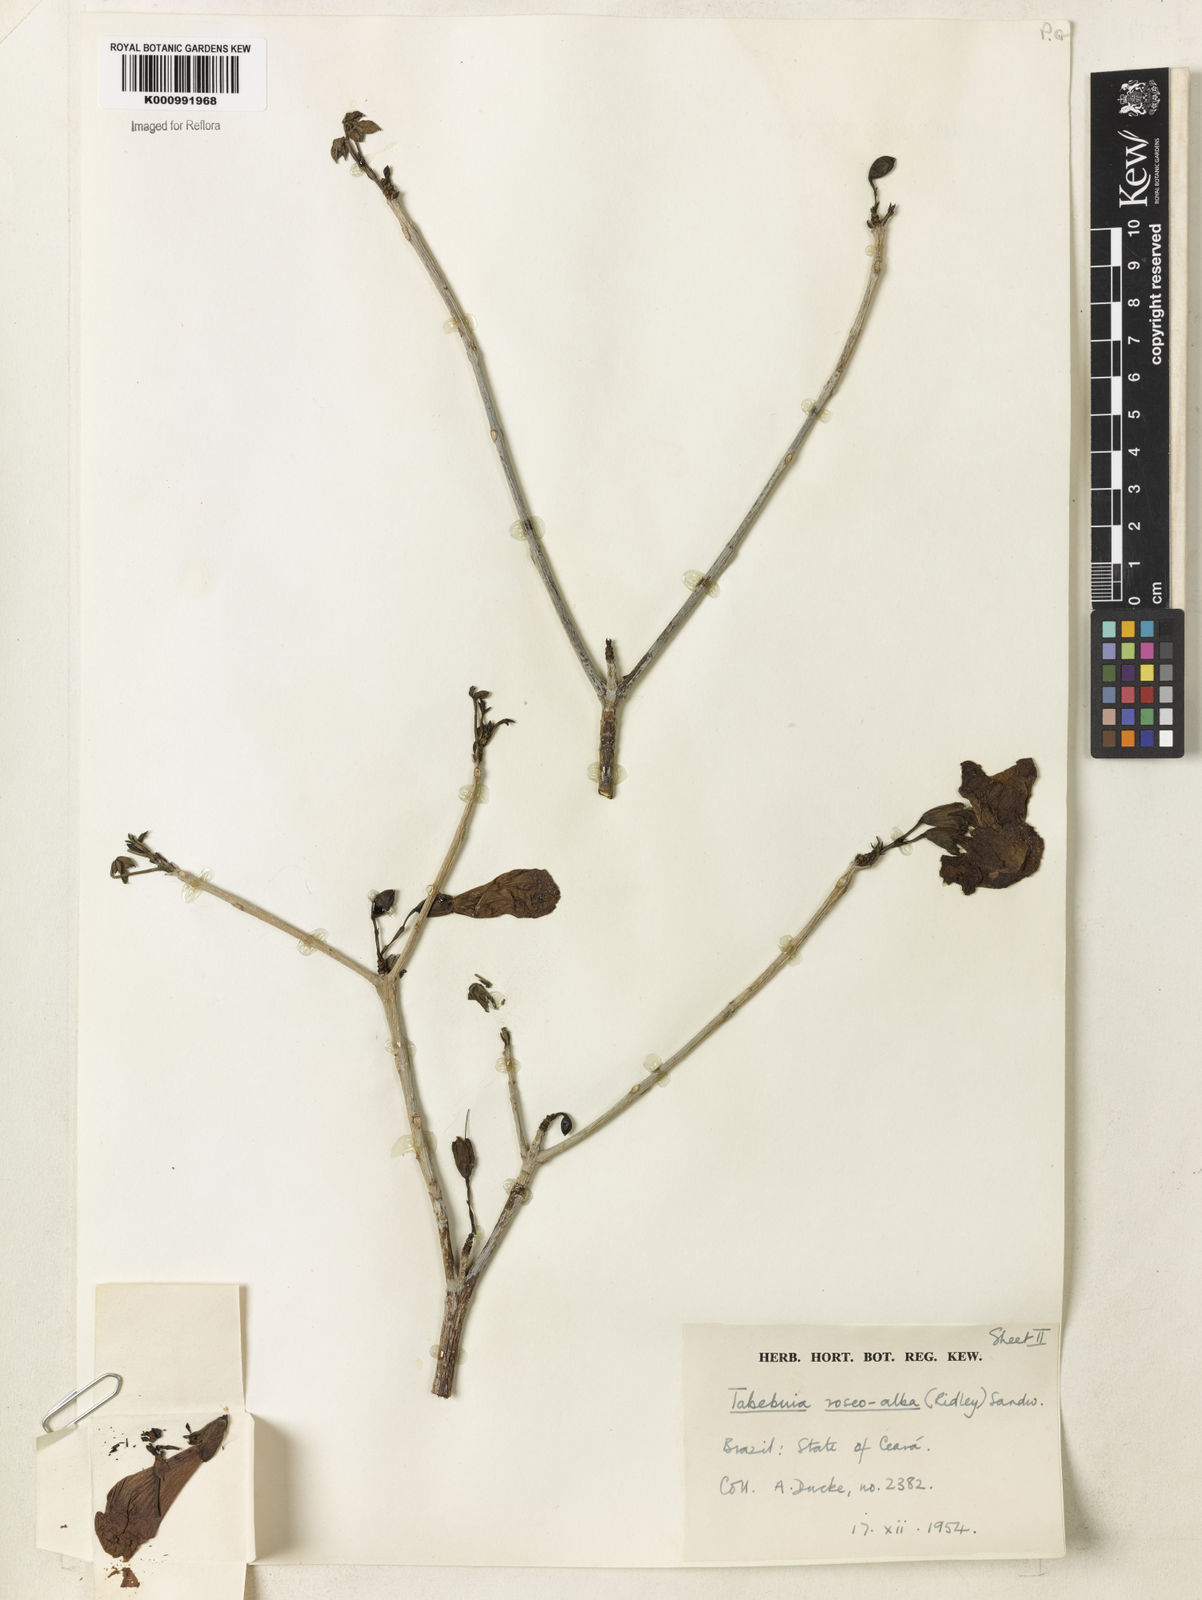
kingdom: Plantae
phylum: Tracheophyta
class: Magnoliopsida
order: Lamiales
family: Bignoniaceae
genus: Tabebuia
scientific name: Tabebuia roseoalba
